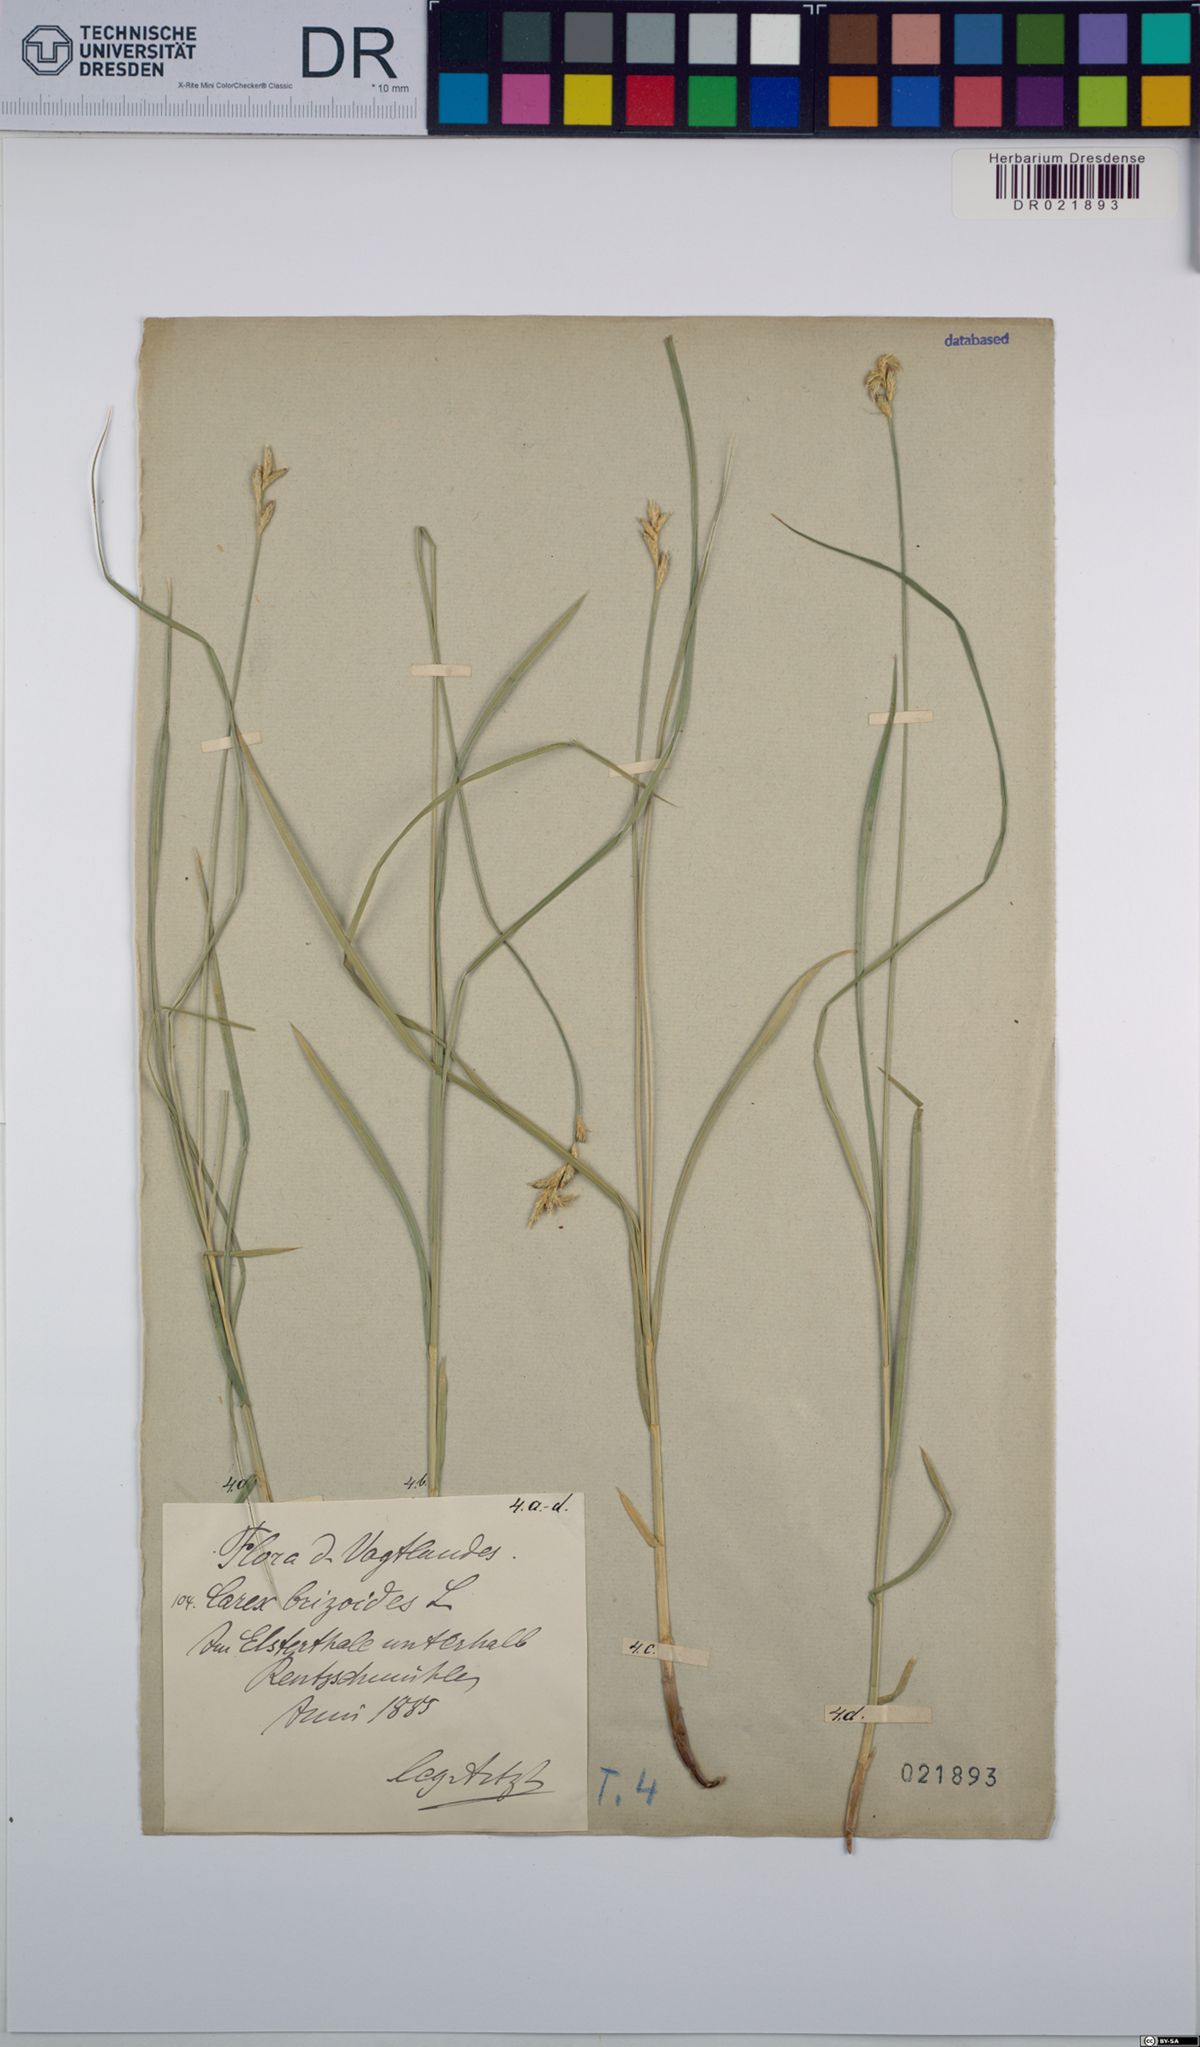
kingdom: Plantae
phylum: Tracheophyta
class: Liliopsida
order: Poales
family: Cyperaceae
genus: Carex
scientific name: Carex brizoides
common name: Quaking-grass sedge
